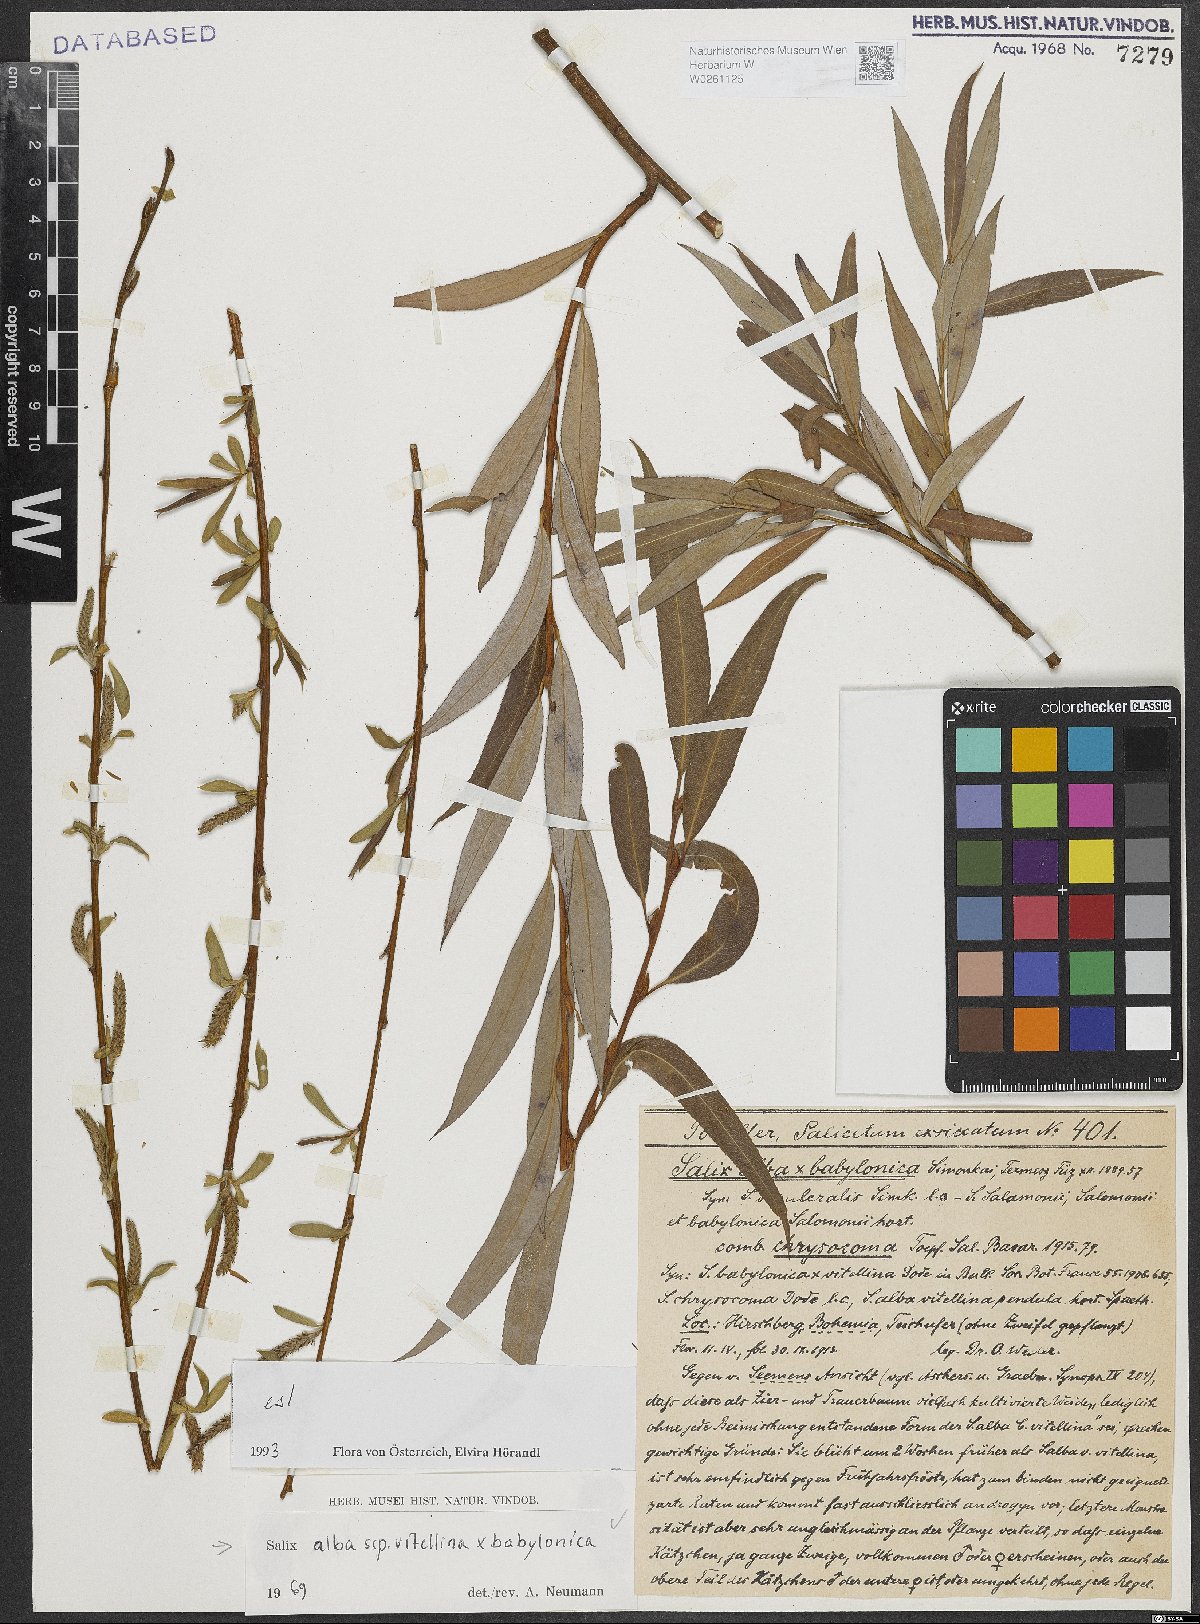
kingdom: Plantae
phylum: Tracheophyta
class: Magnoliopsida
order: Malpighiales
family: Salicaceae
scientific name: Salicaceae
